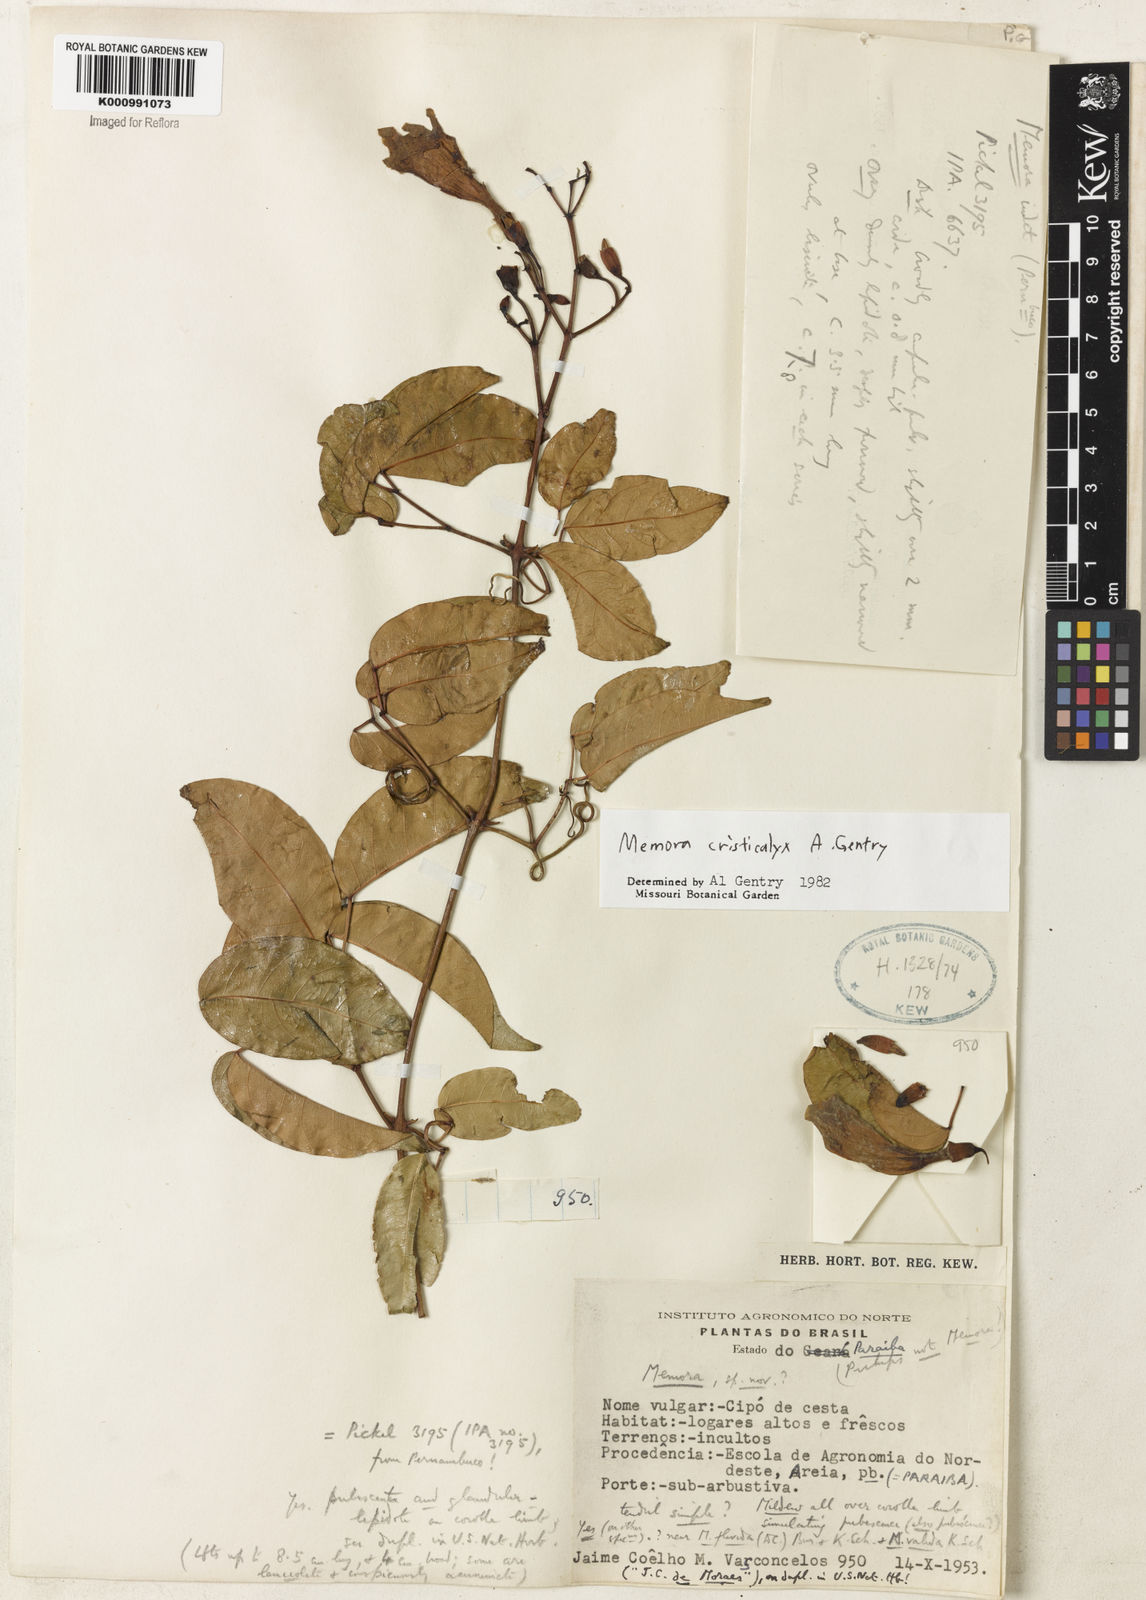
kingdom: Plantae
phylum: Tracheophyta
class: Magnoliopsida
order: Lamiales
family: Bignoniaceae
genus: Adenocalymma
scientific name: Adenocalymma cristicalyx
